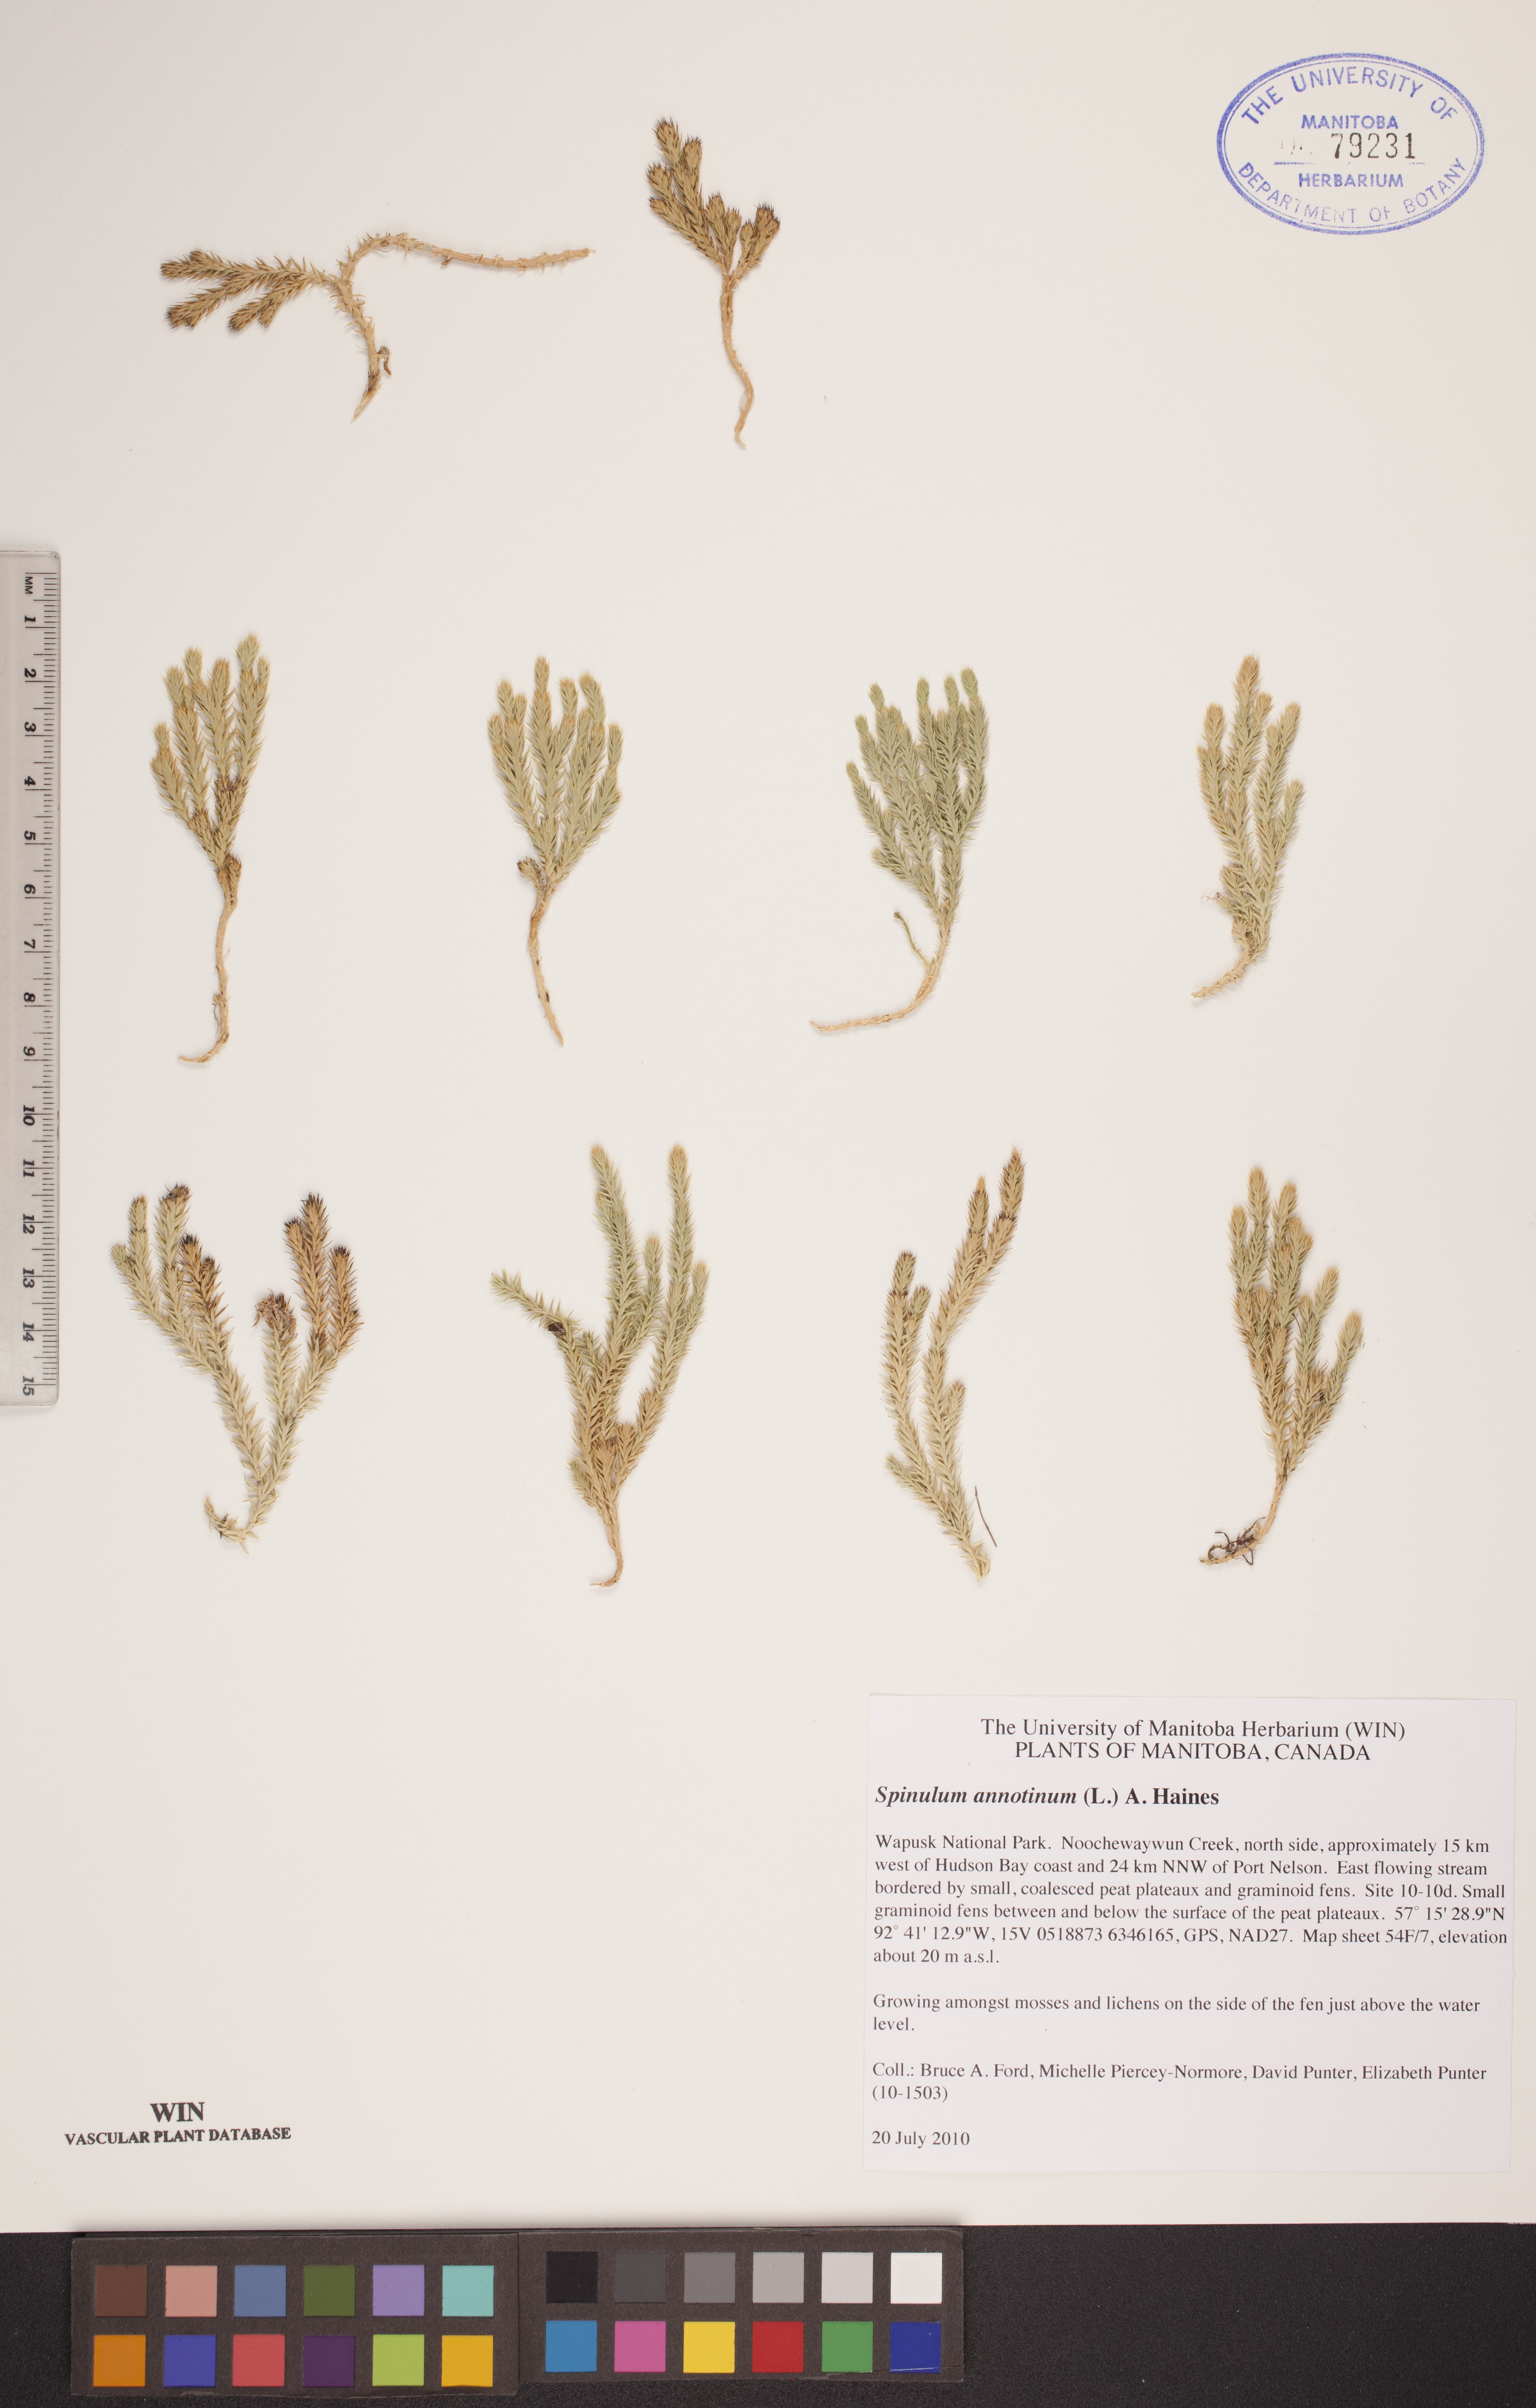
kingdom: Plantae
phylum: Tracheophyta
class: Lycopodiopsida
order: Lycopodiales
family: Lycopodiaceae
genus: Spinulum
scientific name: Spinulum annotinum
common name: Interrupted club-moss
